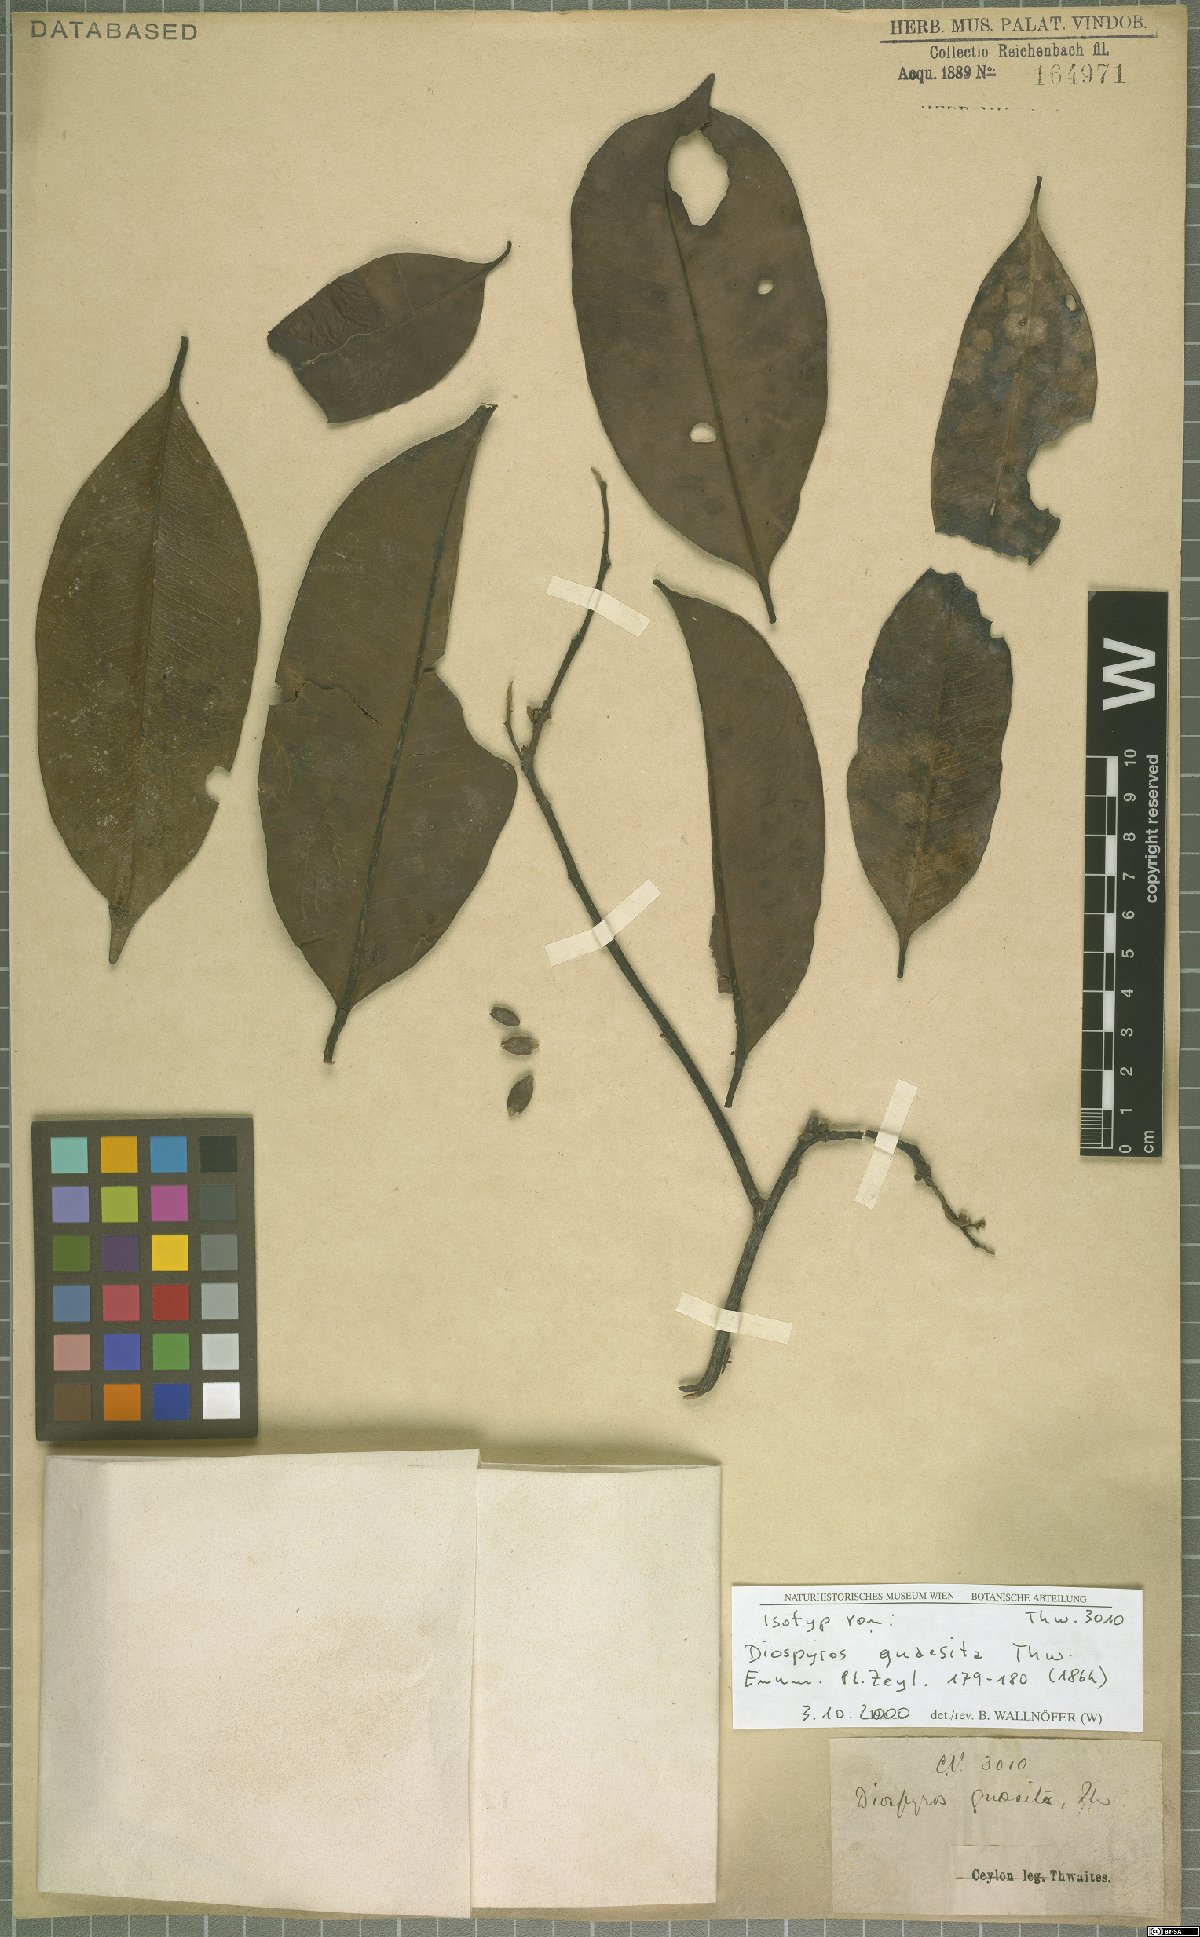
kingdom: Plantae
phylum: Tracheophyta
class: Magnoliopsida
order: Ericales
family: Ebenaceae
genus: Diospyros
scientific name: Diospyros quaesita
